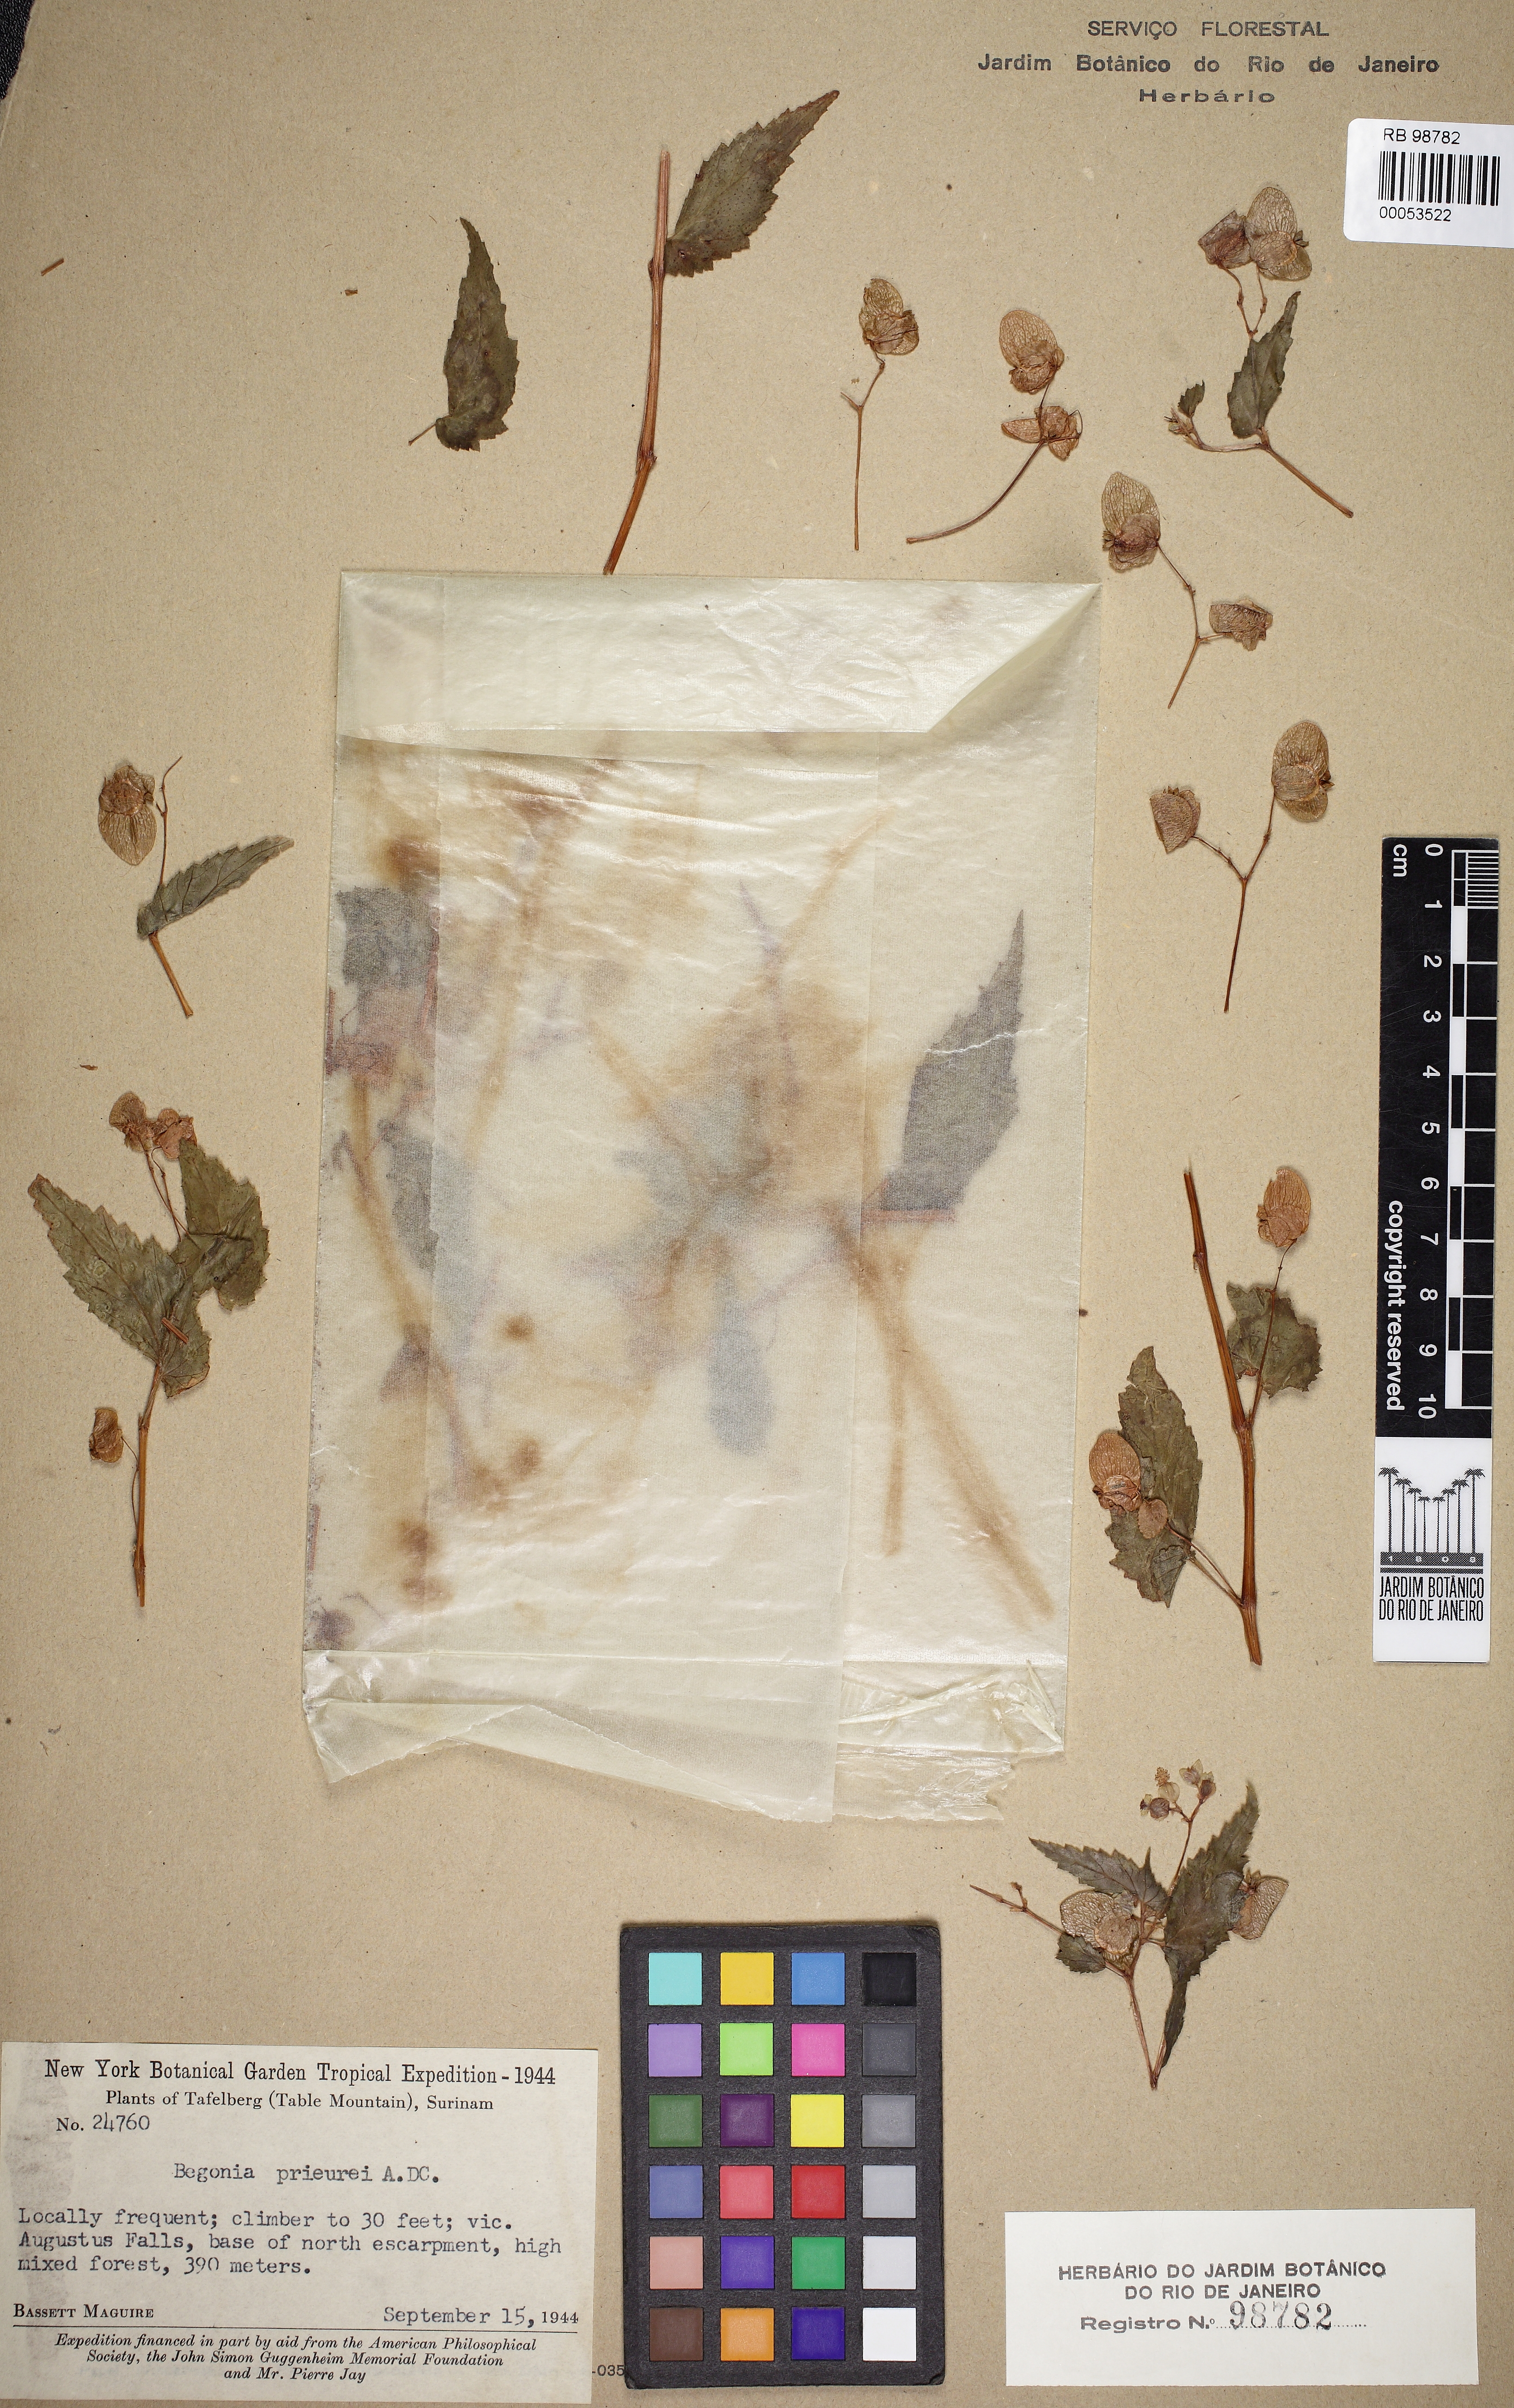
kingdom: Plantae
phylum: Tracheophyta
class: Magnoliopsida
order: Cucurbitales
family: Begoniaceae
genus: Begonia
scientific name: Begonia prieurii
